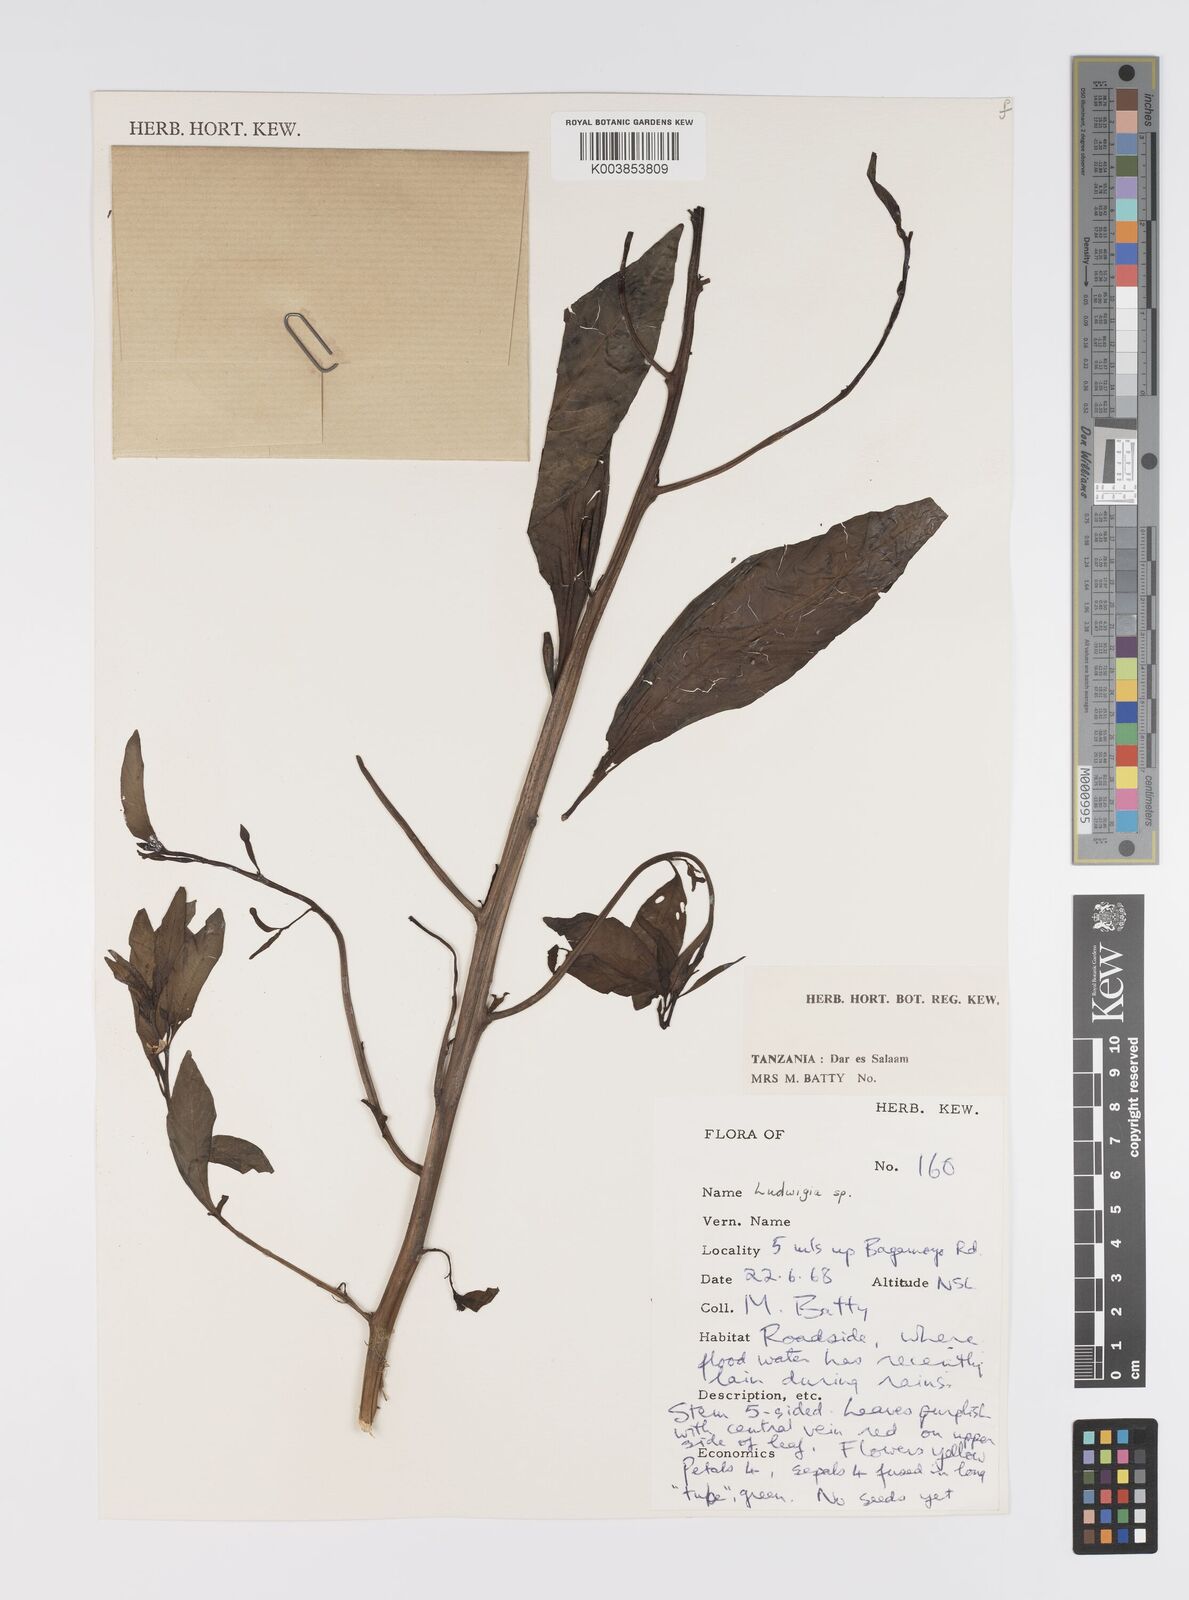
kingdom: Plantae
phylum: Tracheophyta
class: Magnoliopsida
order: Myrtales
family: Onagraceae
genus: Ludwigia
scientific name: Ludwigia
